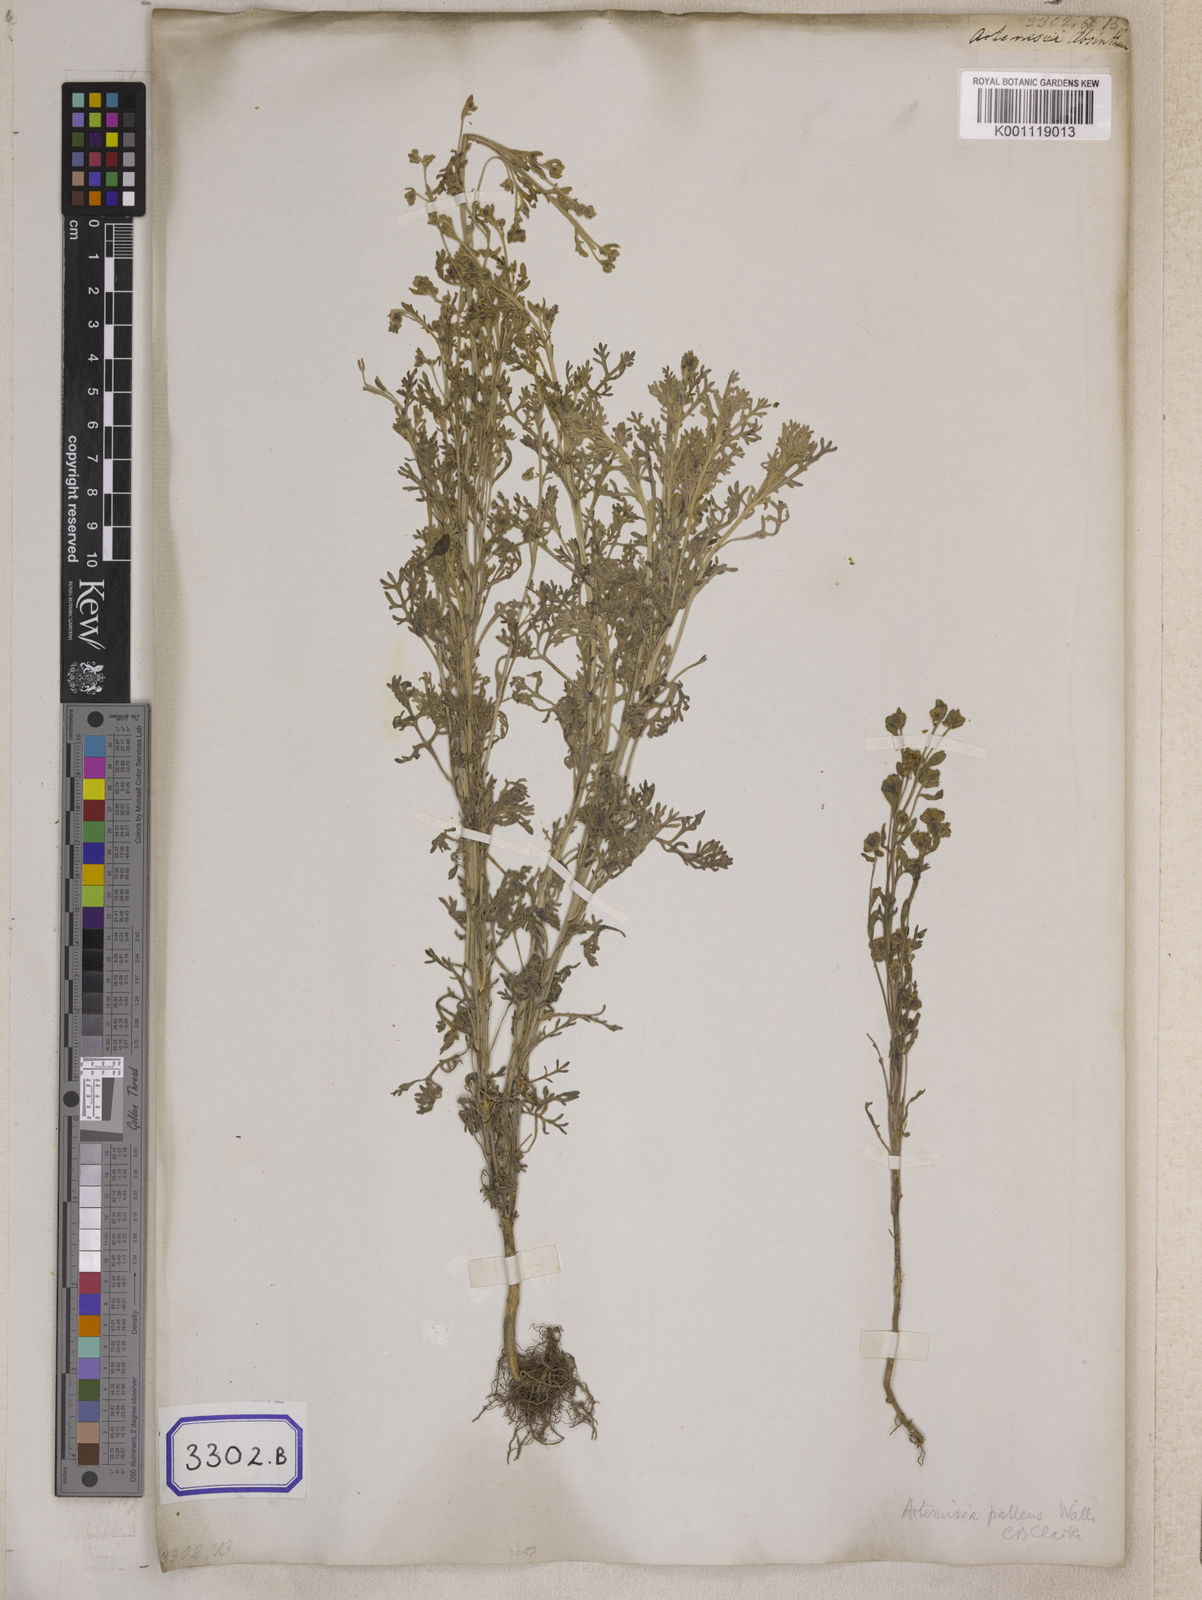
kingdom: Plantae
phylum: Tracheophyta
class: Magnoliopsida
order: Asterales
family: Asteraceae
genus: Artemisia
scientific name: Artemisia
